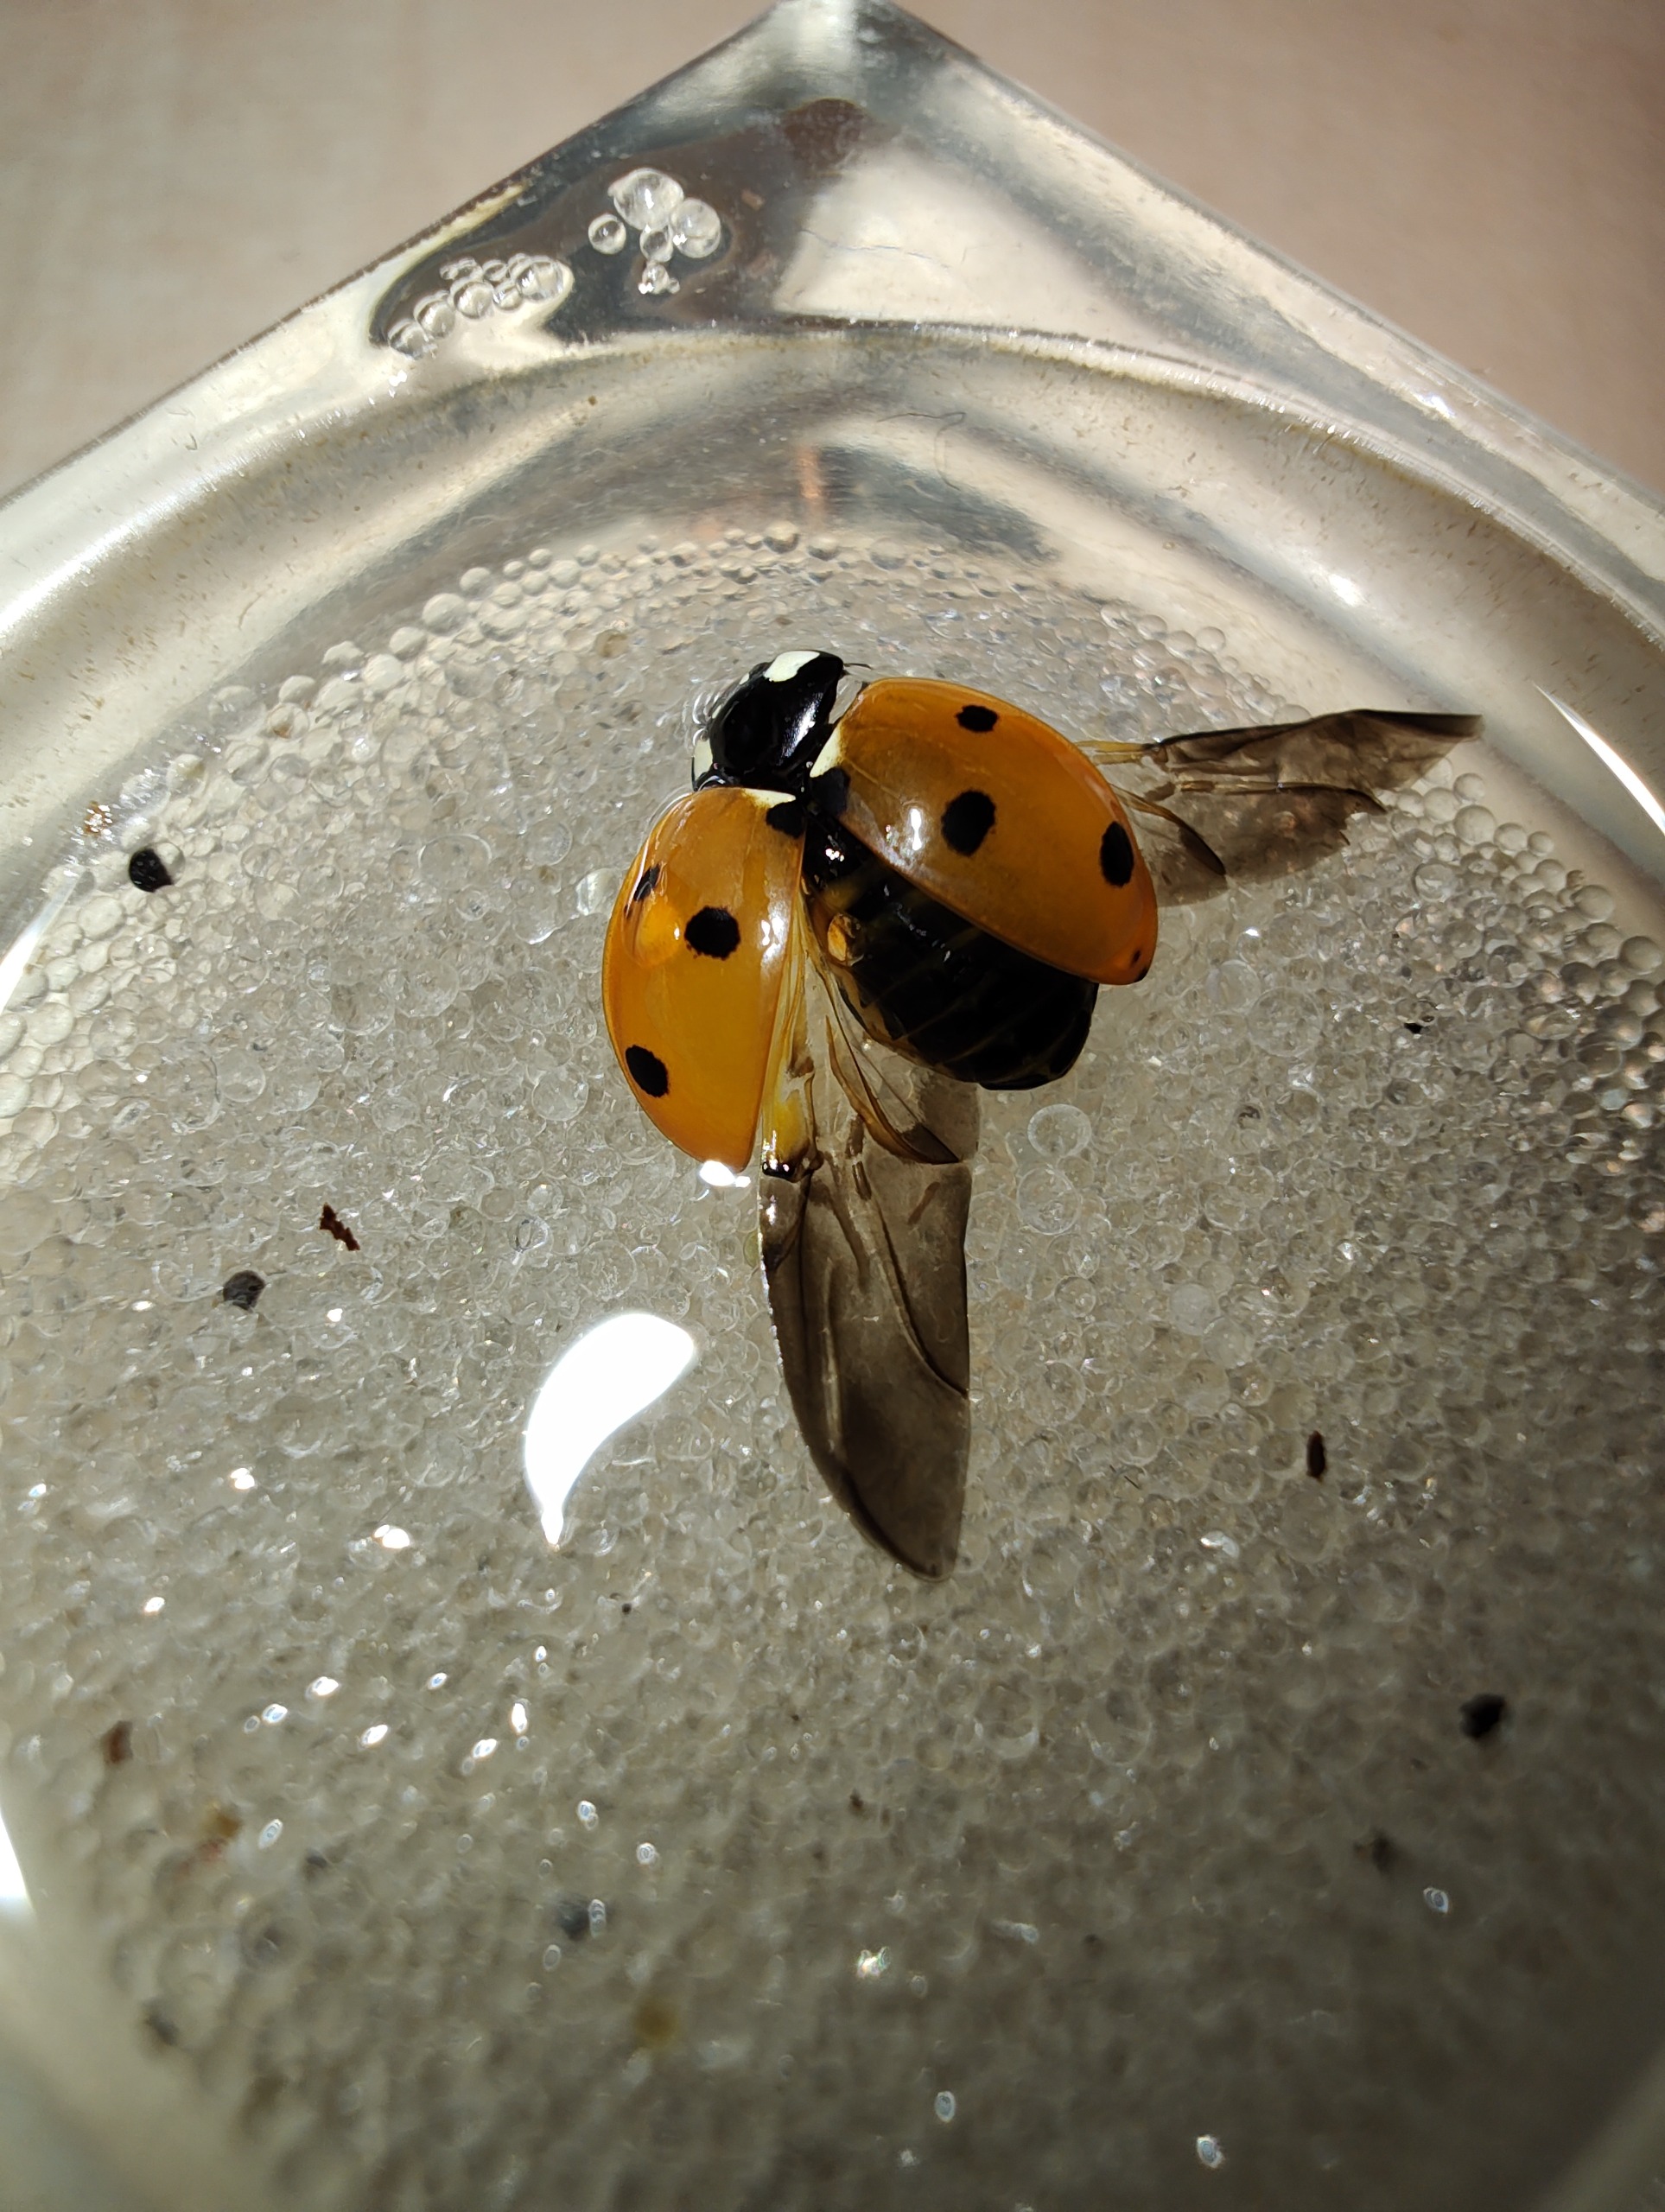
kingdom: Animalia
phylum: Arthropoda
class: Insecta
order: Coleoptera
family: Coccinellidae
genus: Coccinella
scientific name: Coccinella septempunctata
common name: Syvplettet mariehøne
